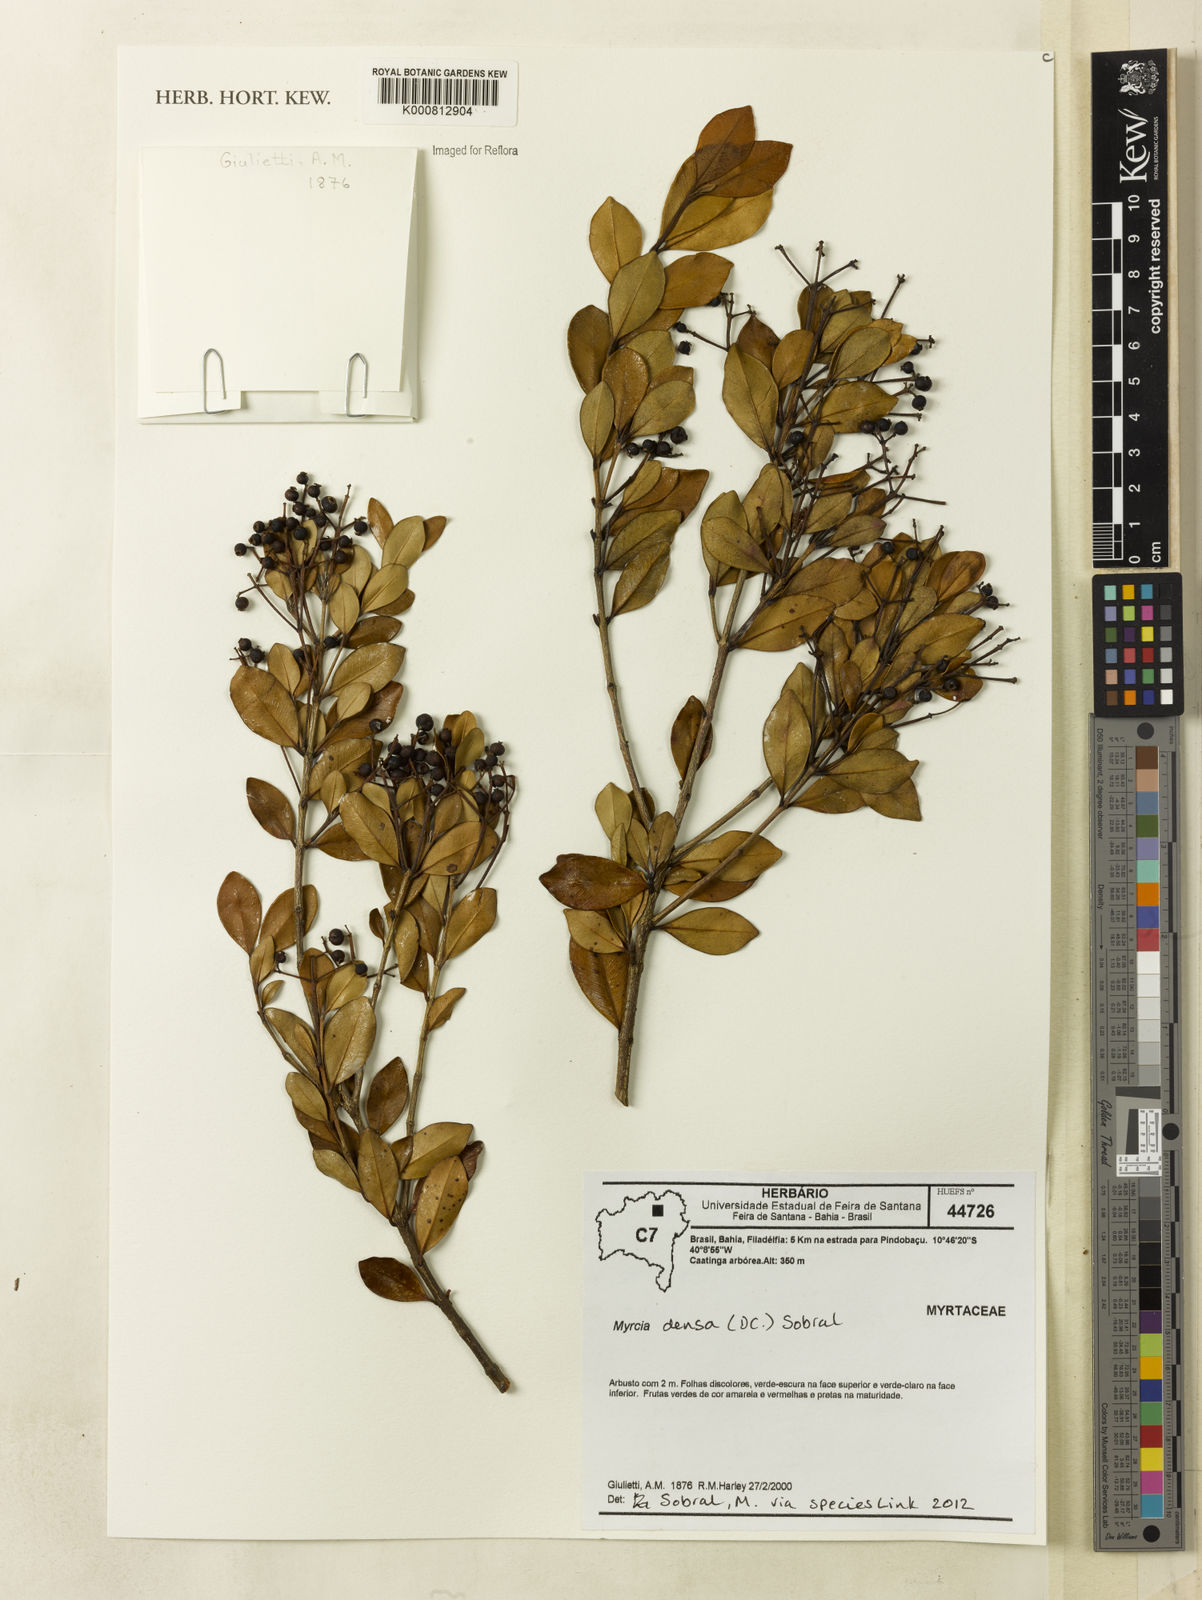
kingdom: Plantae
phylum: Tracheophyta
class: Magnoliopsida
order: Myrtales
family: Myrtaceae
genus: Myrcia
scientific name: Myrcia densa
